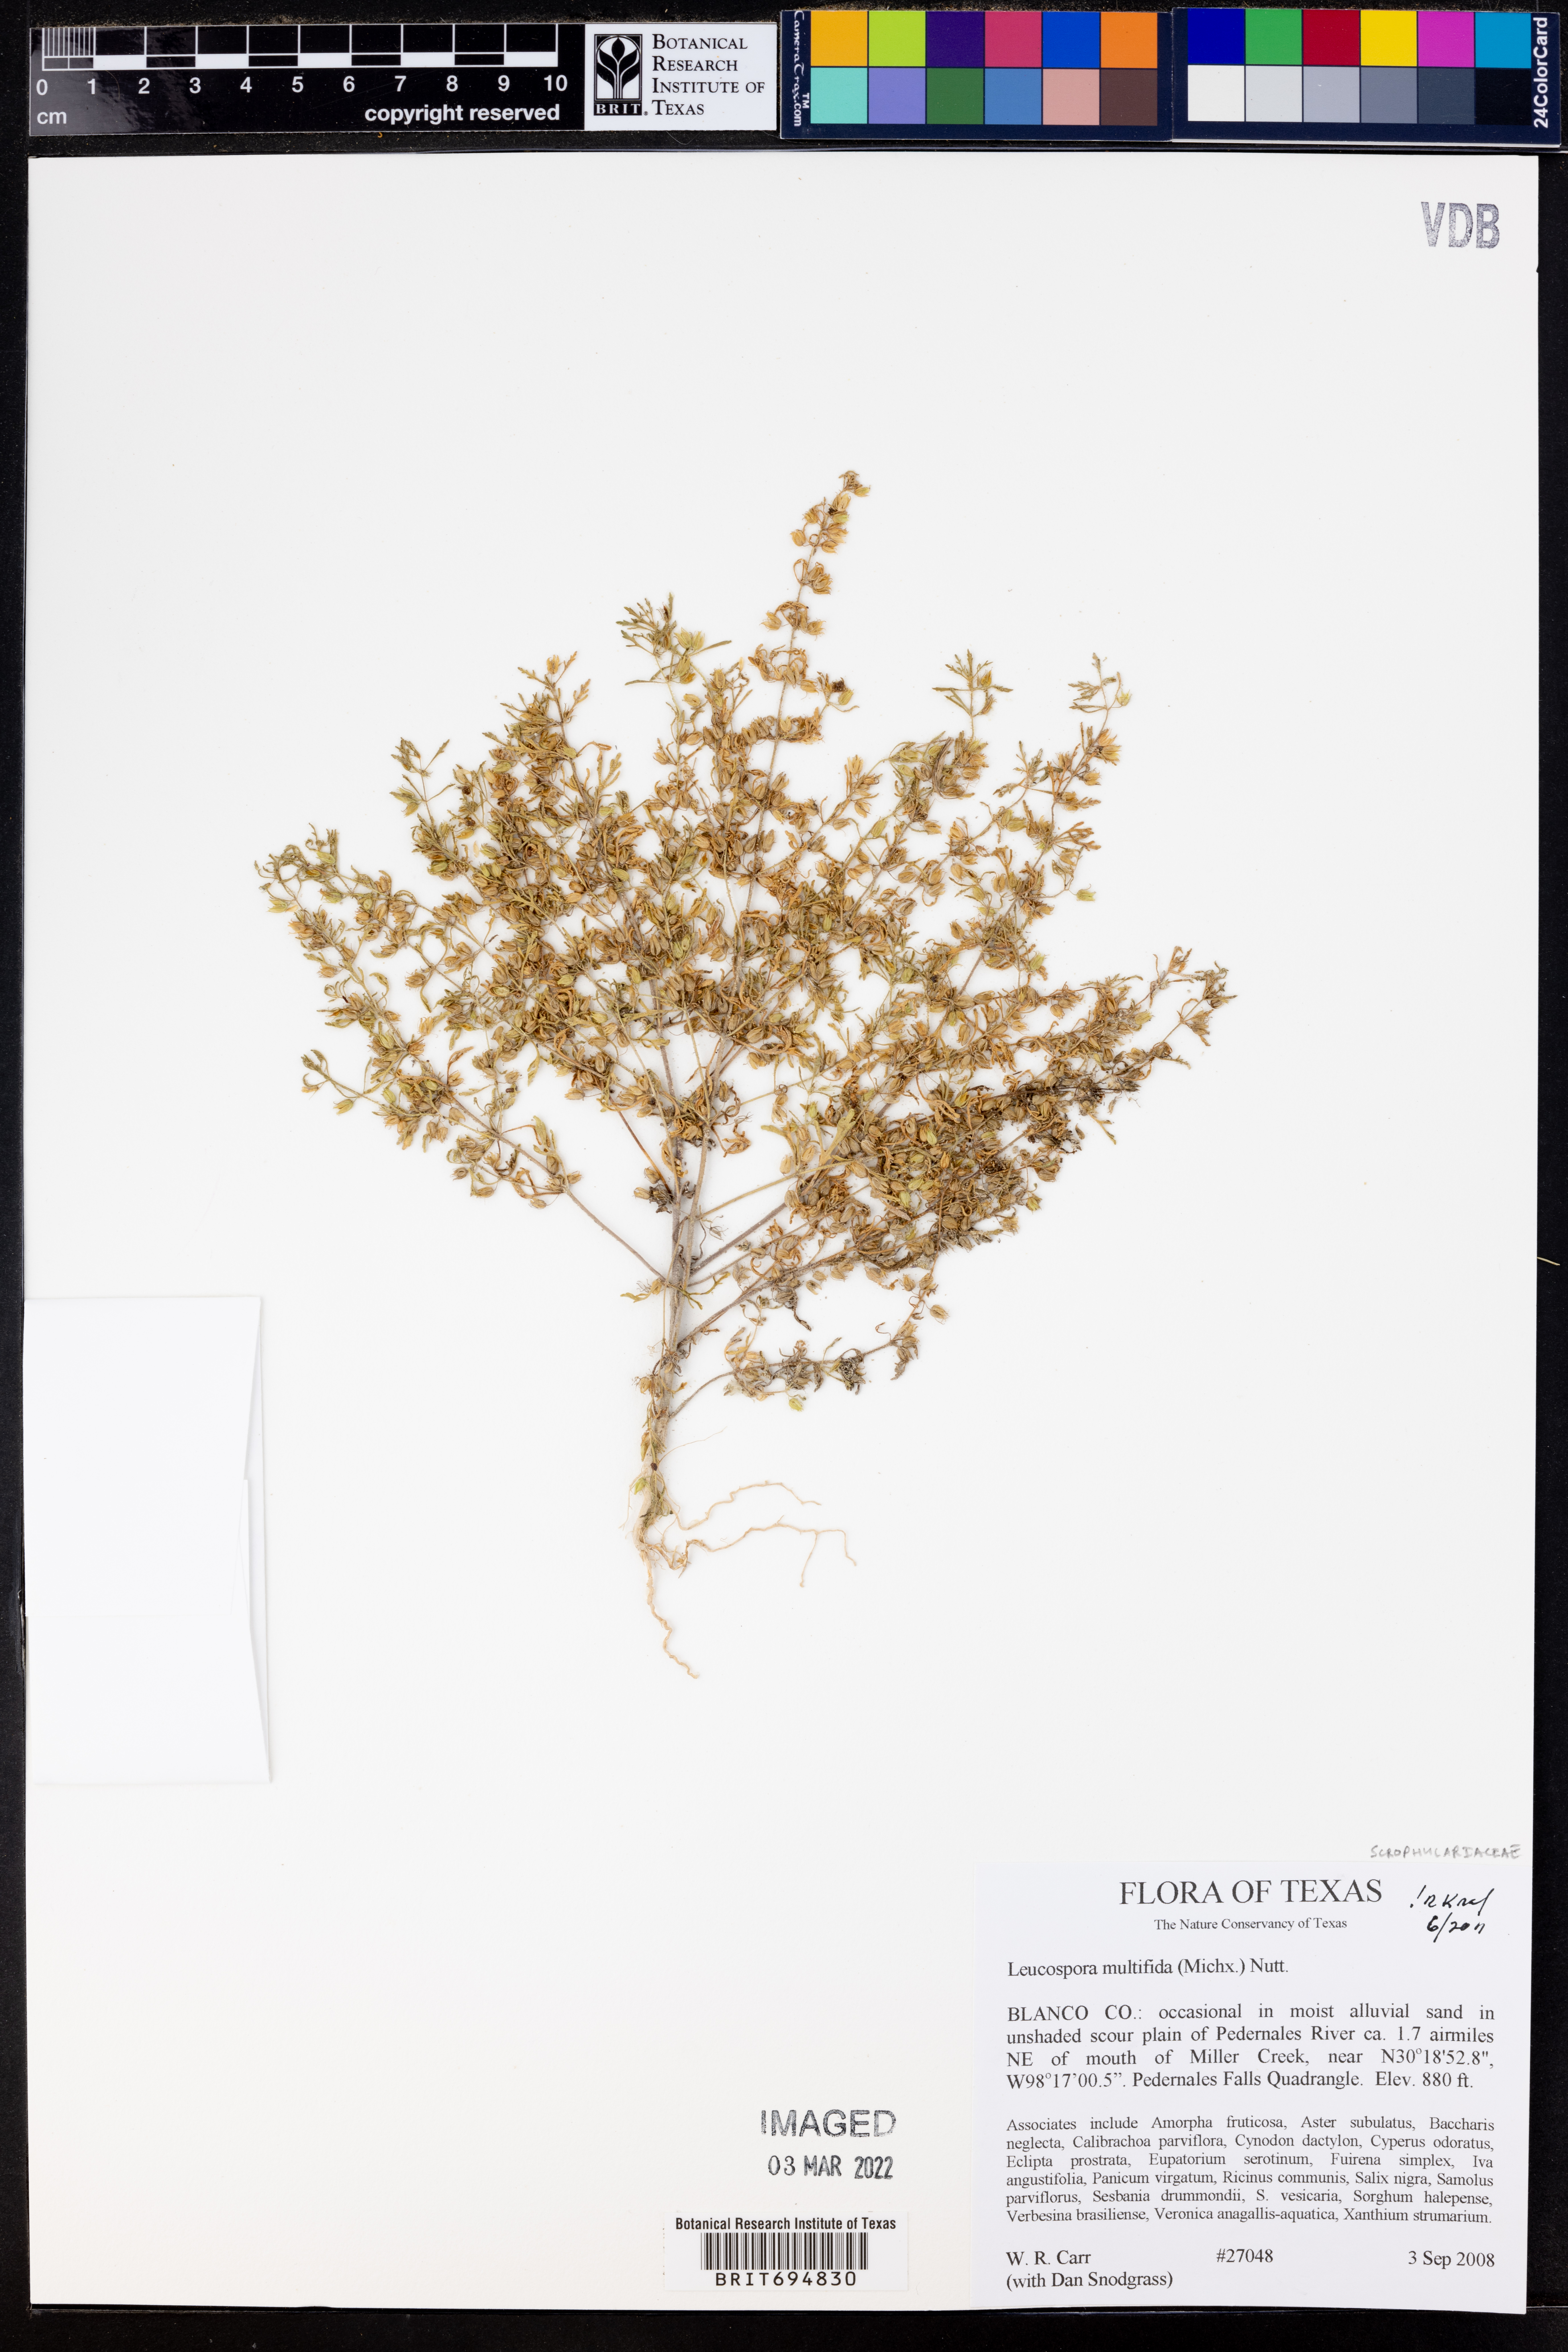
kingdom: Plantae
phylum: Tracheophyta
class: Magnoliopsida
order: Lamiales
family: Plantaginaceae
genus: Leucospora
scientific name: Leucospora multifida
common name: Narrow-leaf paleseed
